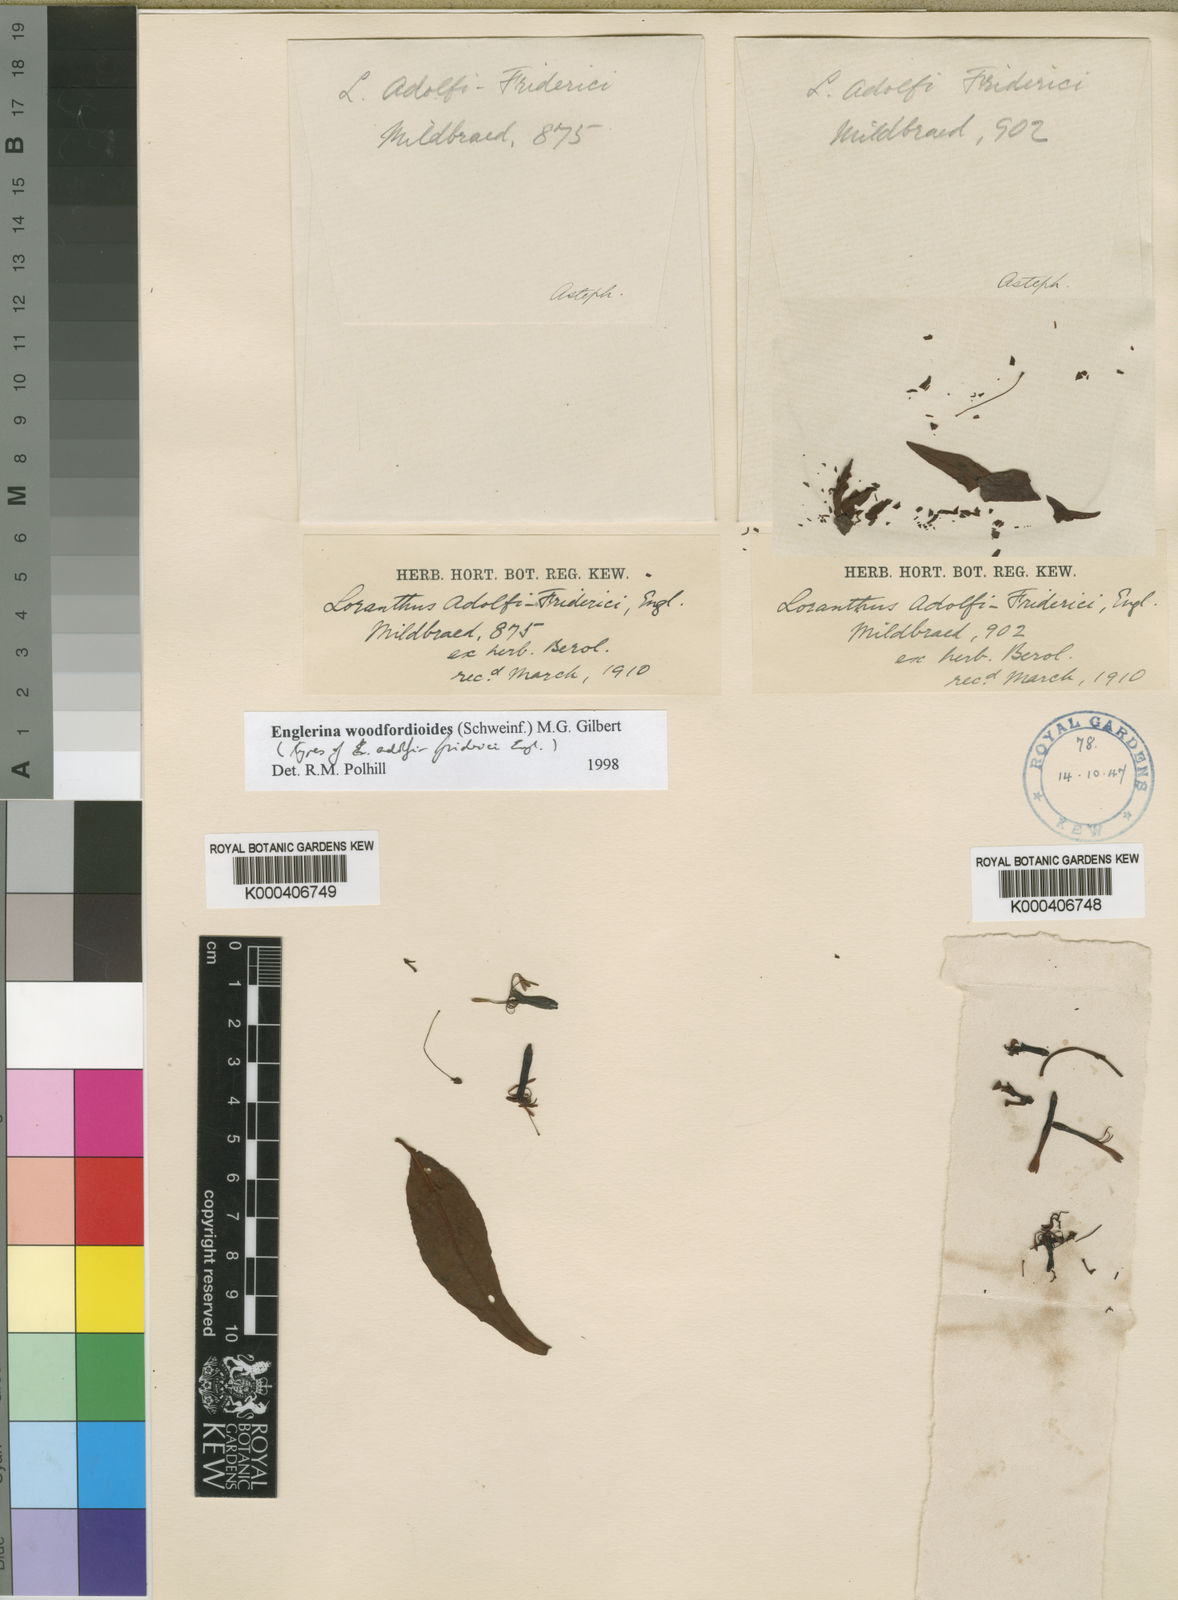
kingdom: Plantae
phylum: Tracheophyta
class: Magnoliopsida
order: Santalales
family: Loranthaceae
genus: Englerina
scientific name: Englerina
